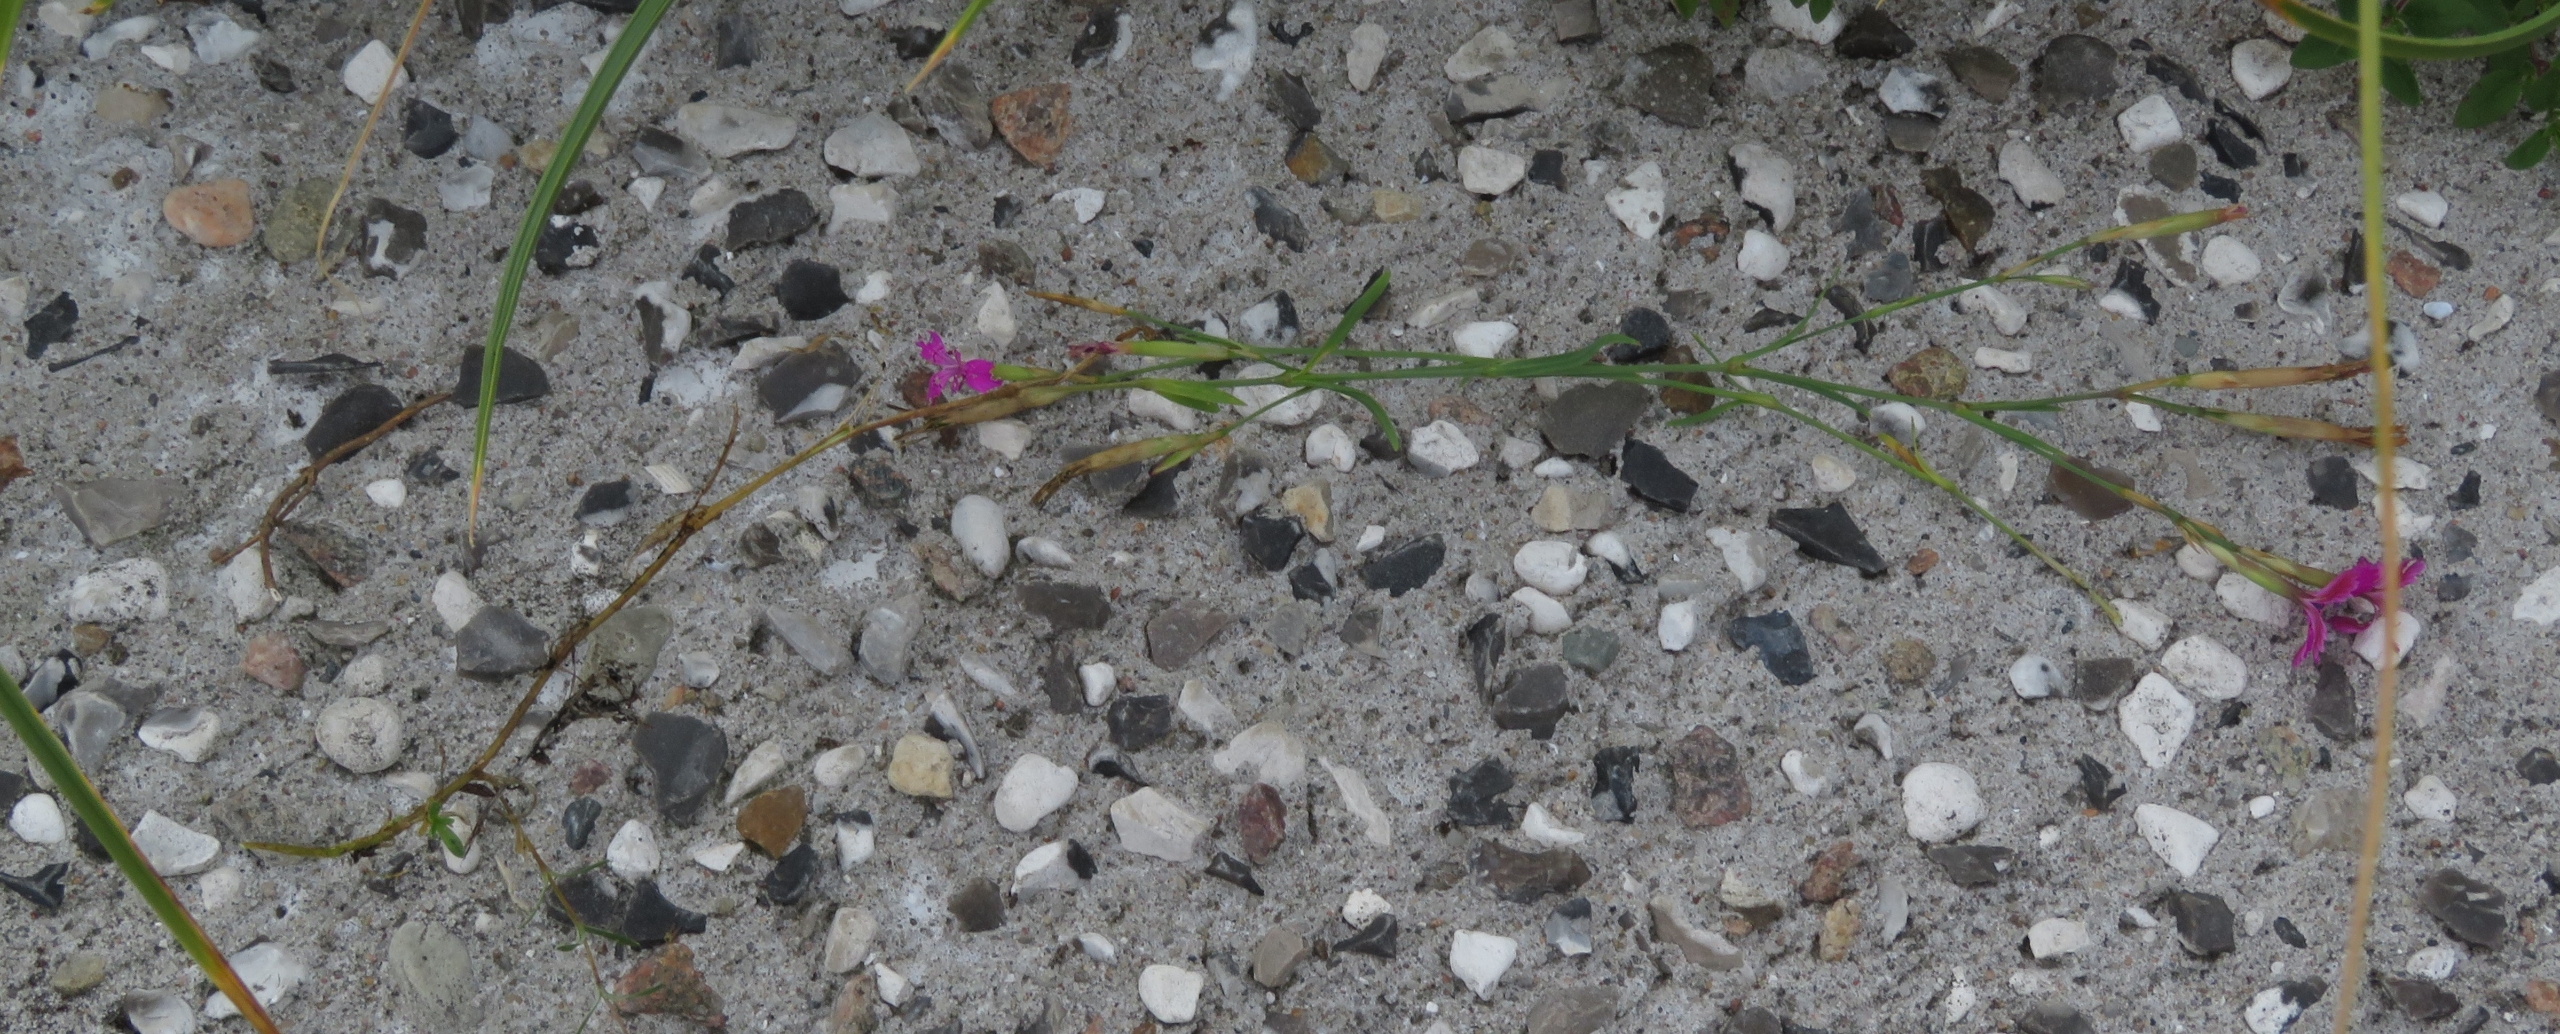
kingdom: Plantae
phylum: Tracheophyta
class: Magnoliopsida
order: Caryophyllales
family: Caryophyllaceae
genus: Dianthus
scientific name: Dianthus deltoides
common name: Bakke-nellike
